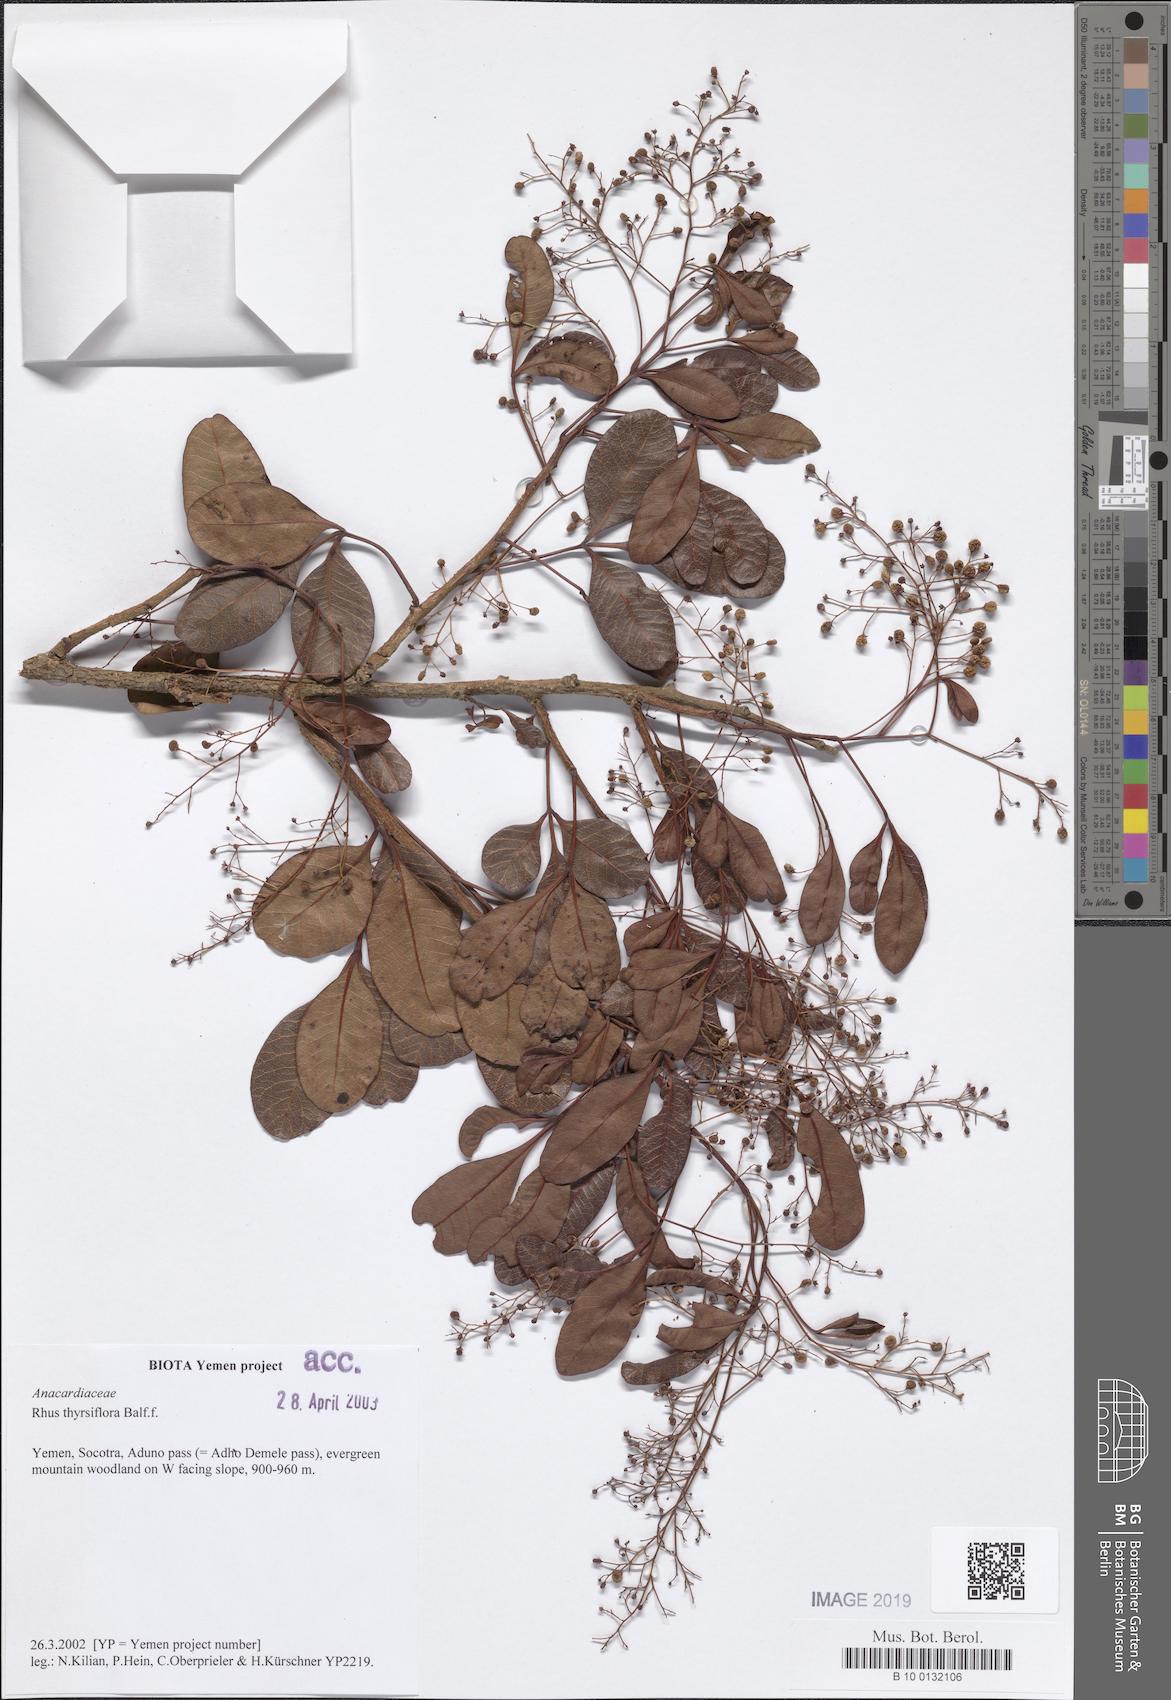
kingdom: Plantae
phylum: Tracheophyta
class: Magnoliopsida
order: Sapindales
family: Anacardiaceae
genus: Searsia
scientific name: Searsia thyrsiflora
